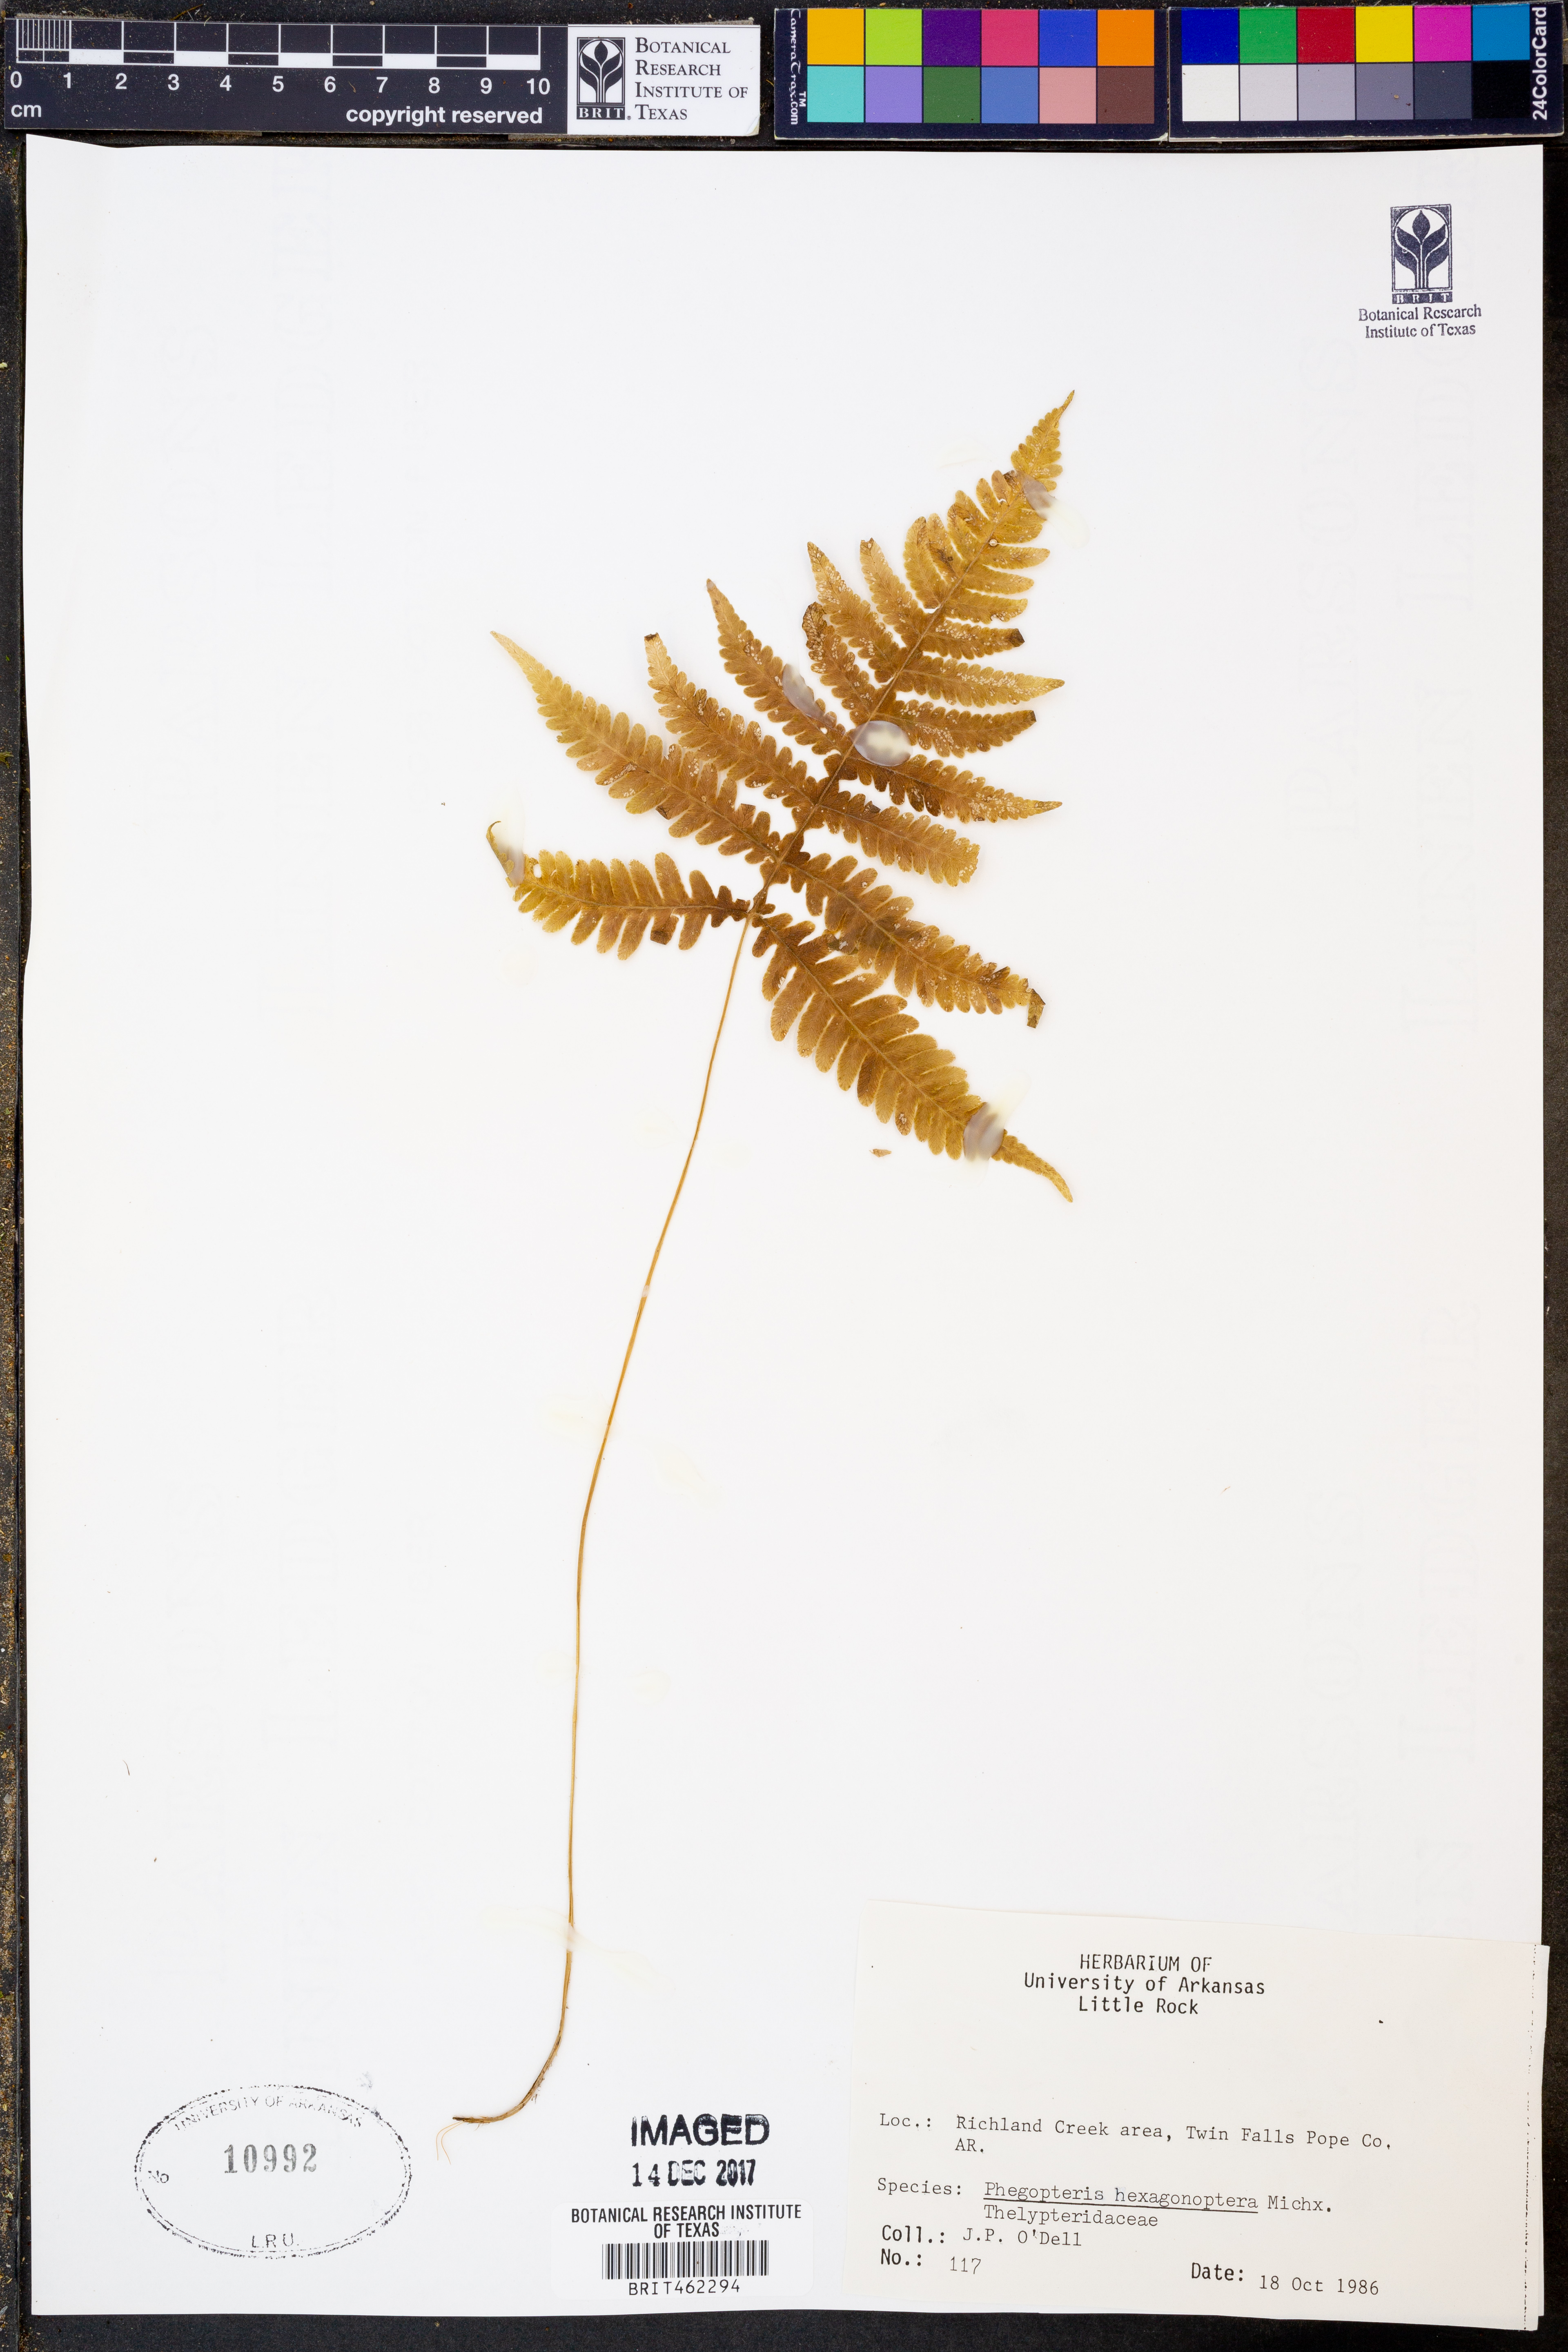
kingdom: Plantae
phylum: Tracheophyta
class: Polypodiopsida
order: Polypodiales
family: Thelypteridaceae
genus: Phegopteris
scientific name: Phegopteris hexagonoptera
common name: Broad beech fern
